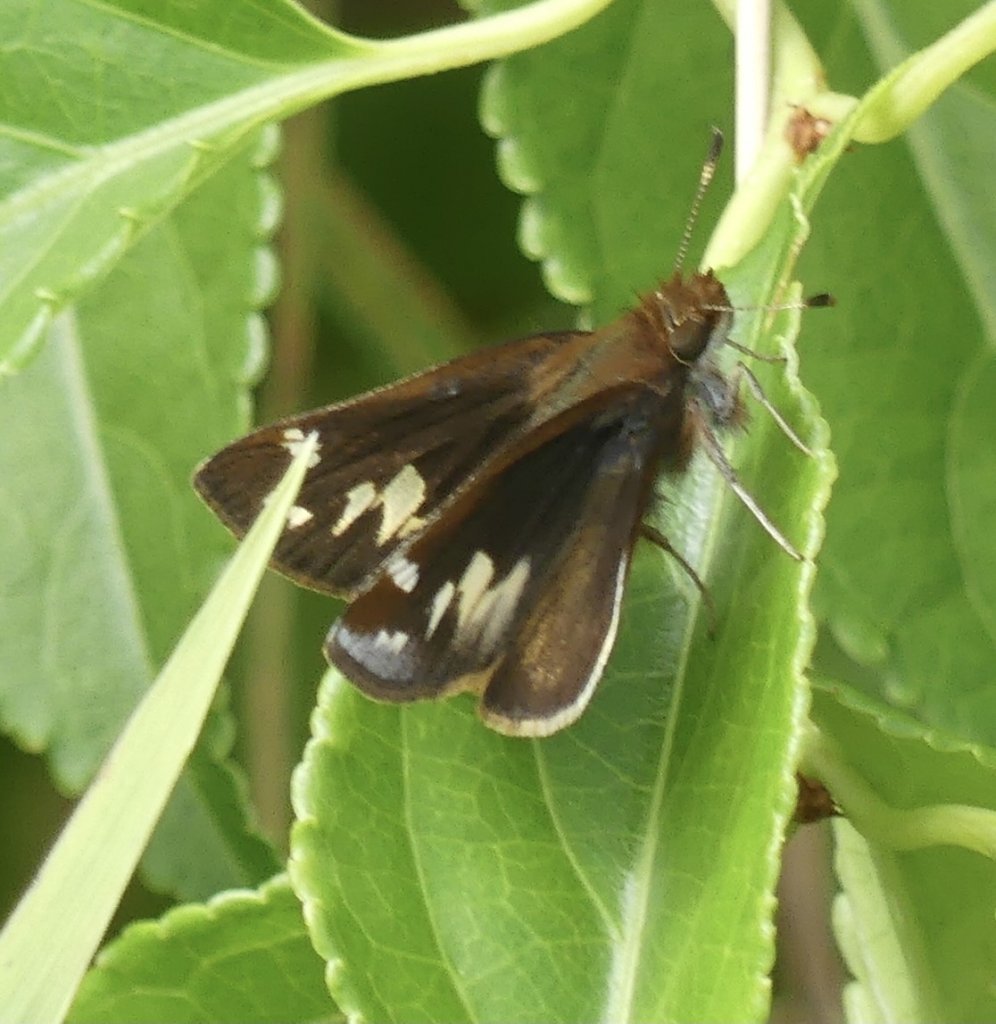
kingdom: Animalia
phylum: Arthropoda
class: Insecta
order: Lepidoptera
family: Hesperiidae
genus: Lon
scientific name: Lon zabulon
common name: Zabulon Skipper
